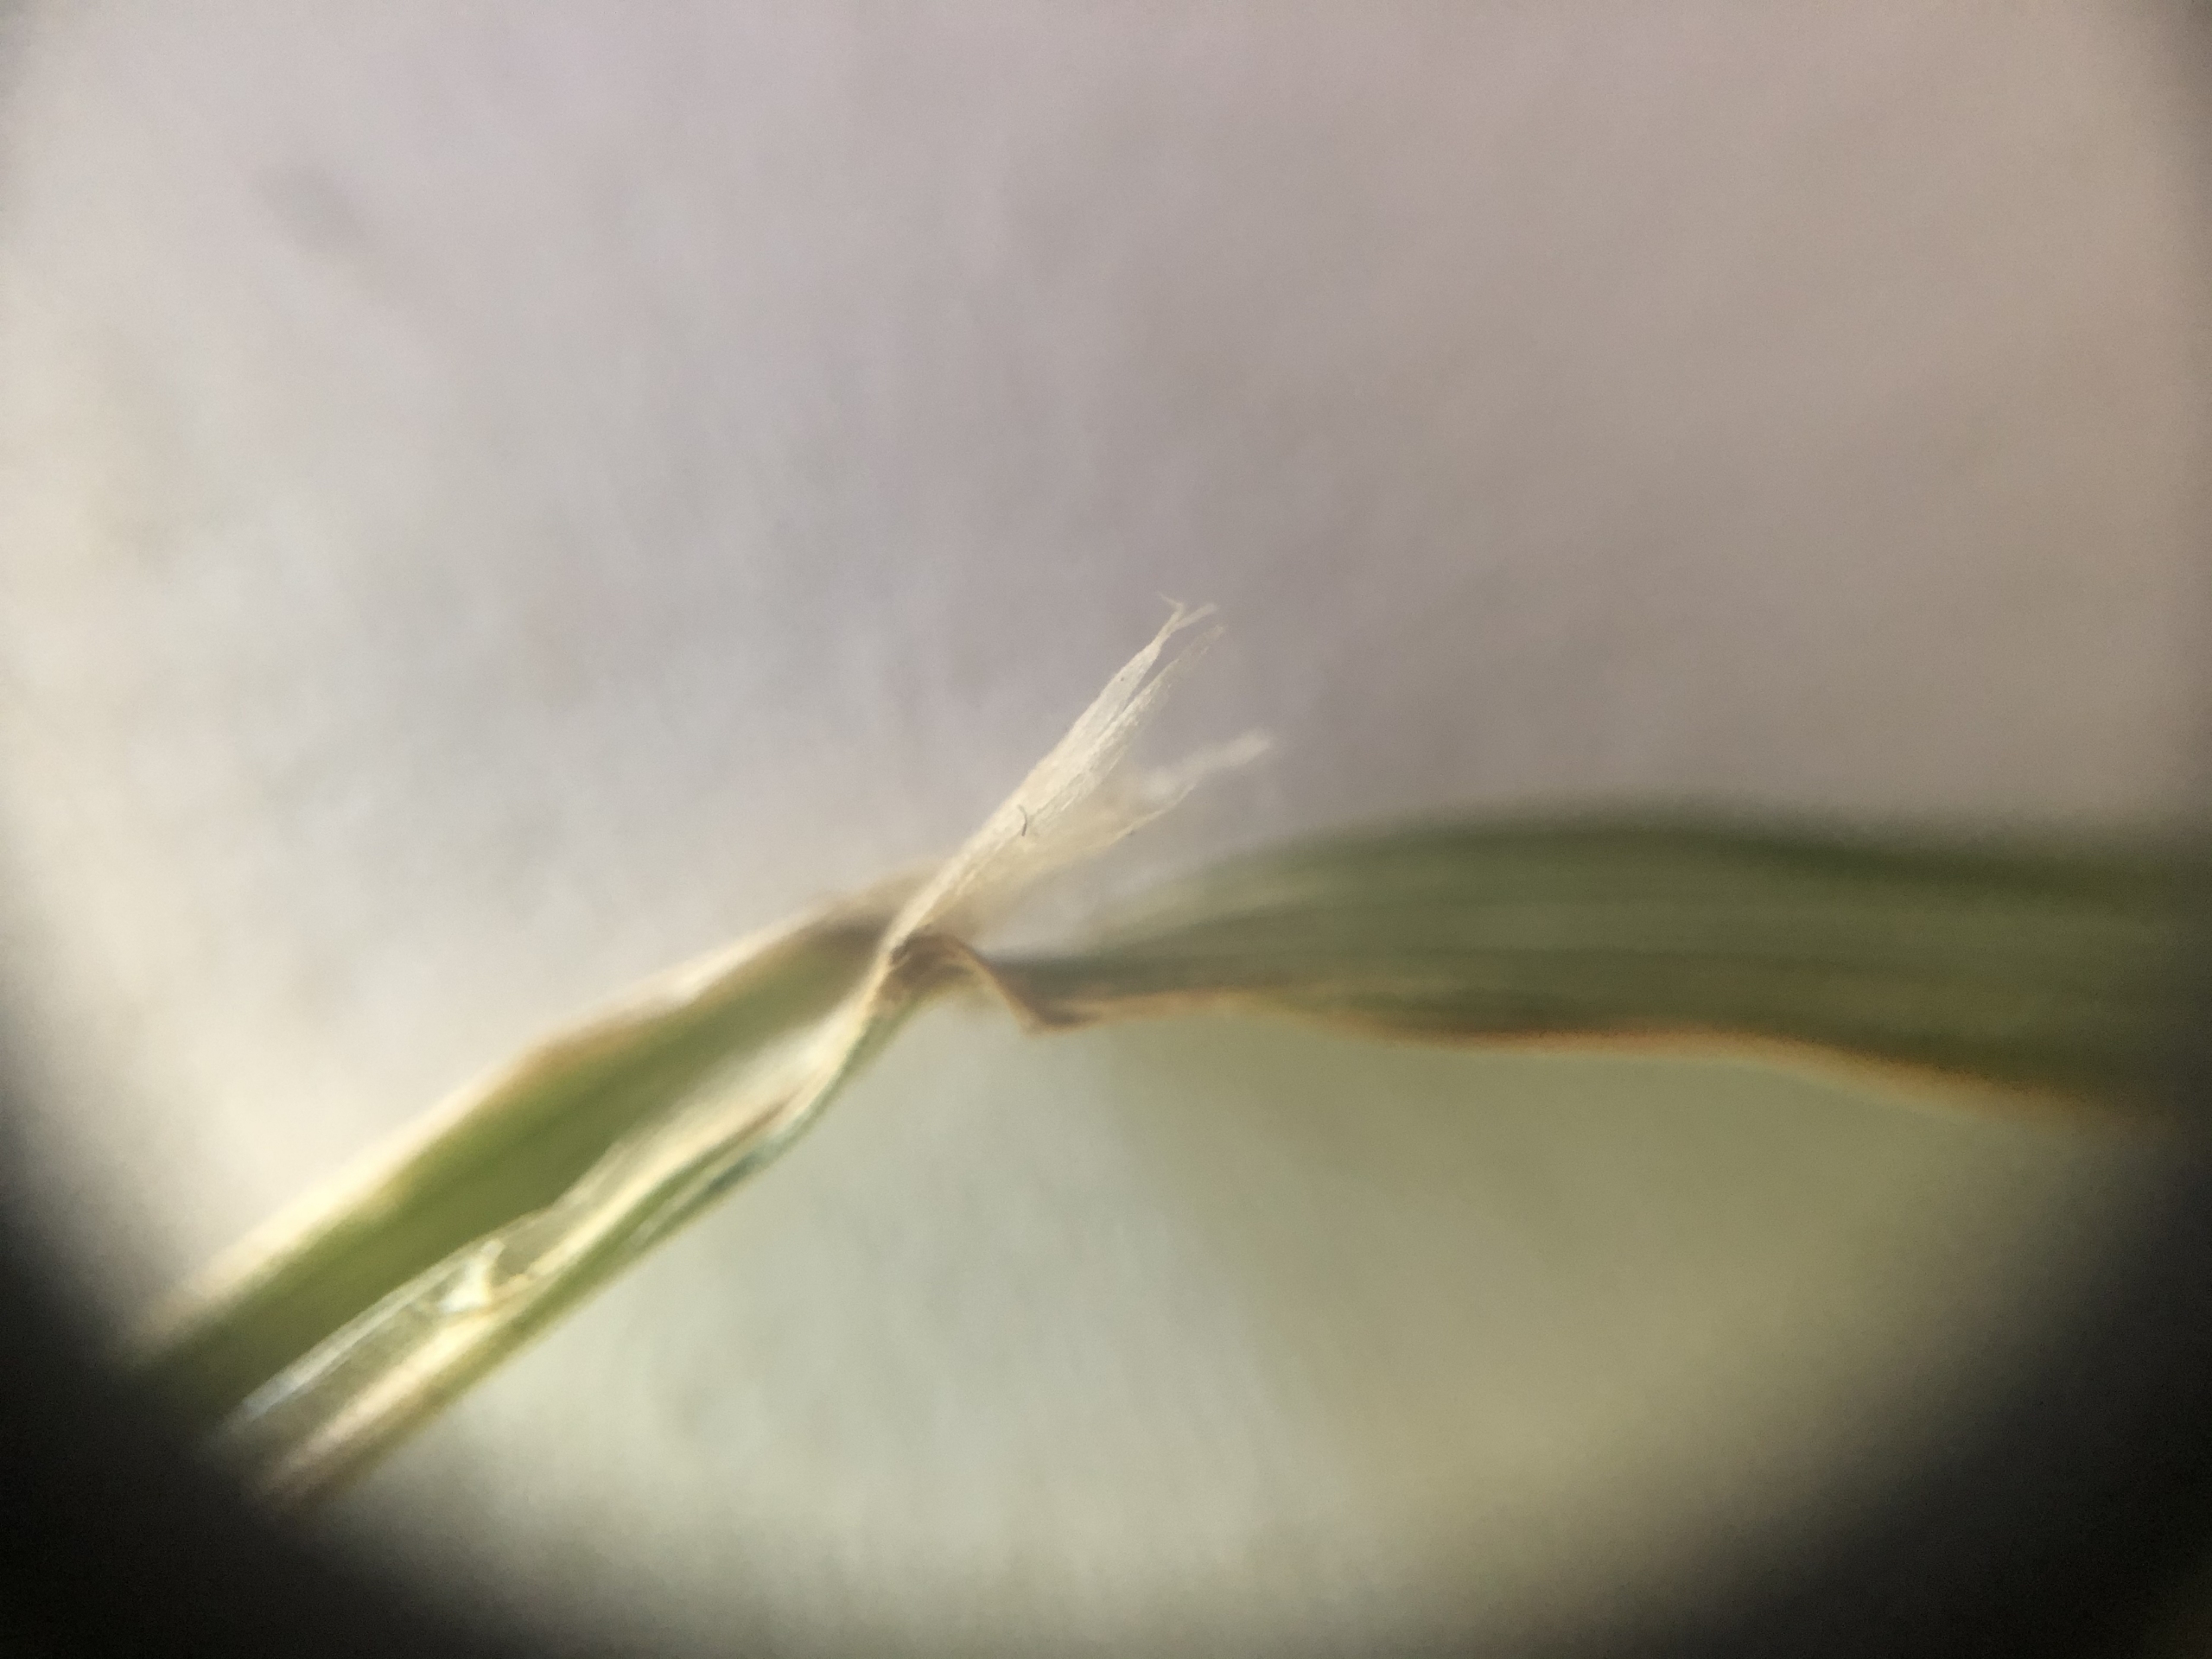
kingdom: Plantae
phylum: Tracheophyta
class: Liliopsida
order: Poales
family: Poaceae
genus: Agrostis
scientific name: Agrostis gigantea
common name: Stortoppet hvene
